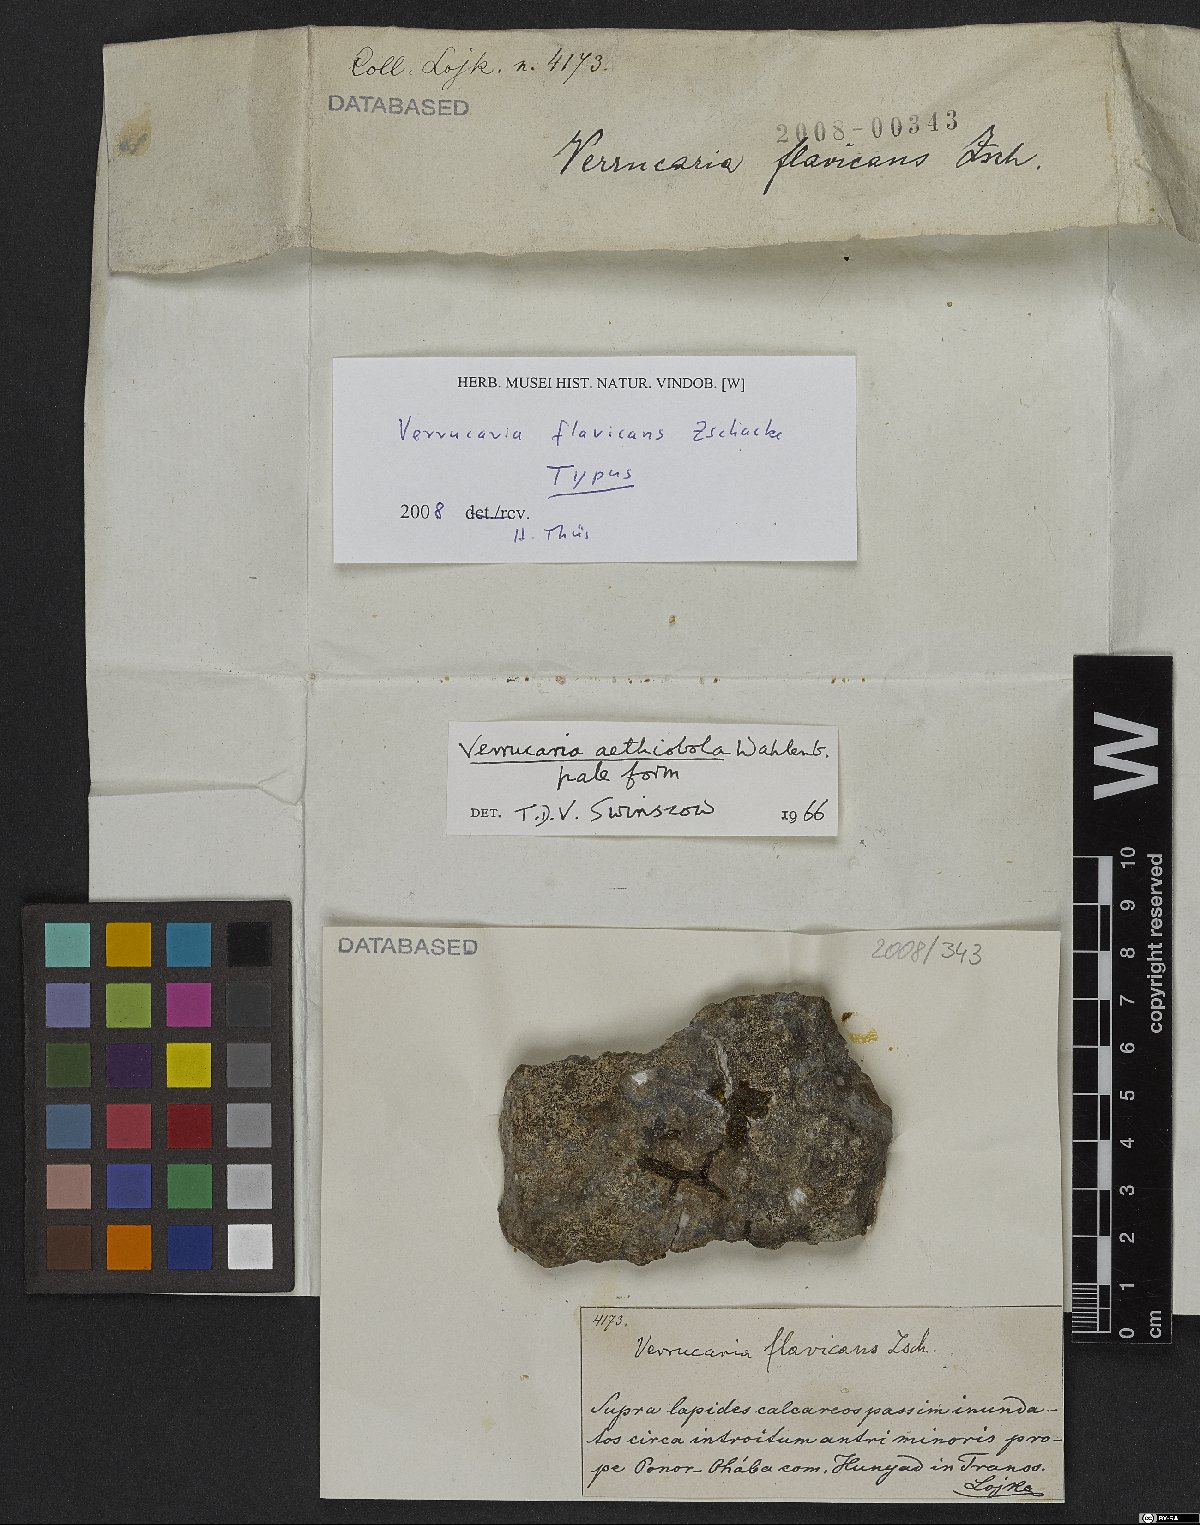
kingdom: Fungi
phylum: Ascomycota
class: Eurotiomycetes
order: Verrucariales
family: Verrucariaceae
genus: Verrucaria
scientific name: Verrucaria
